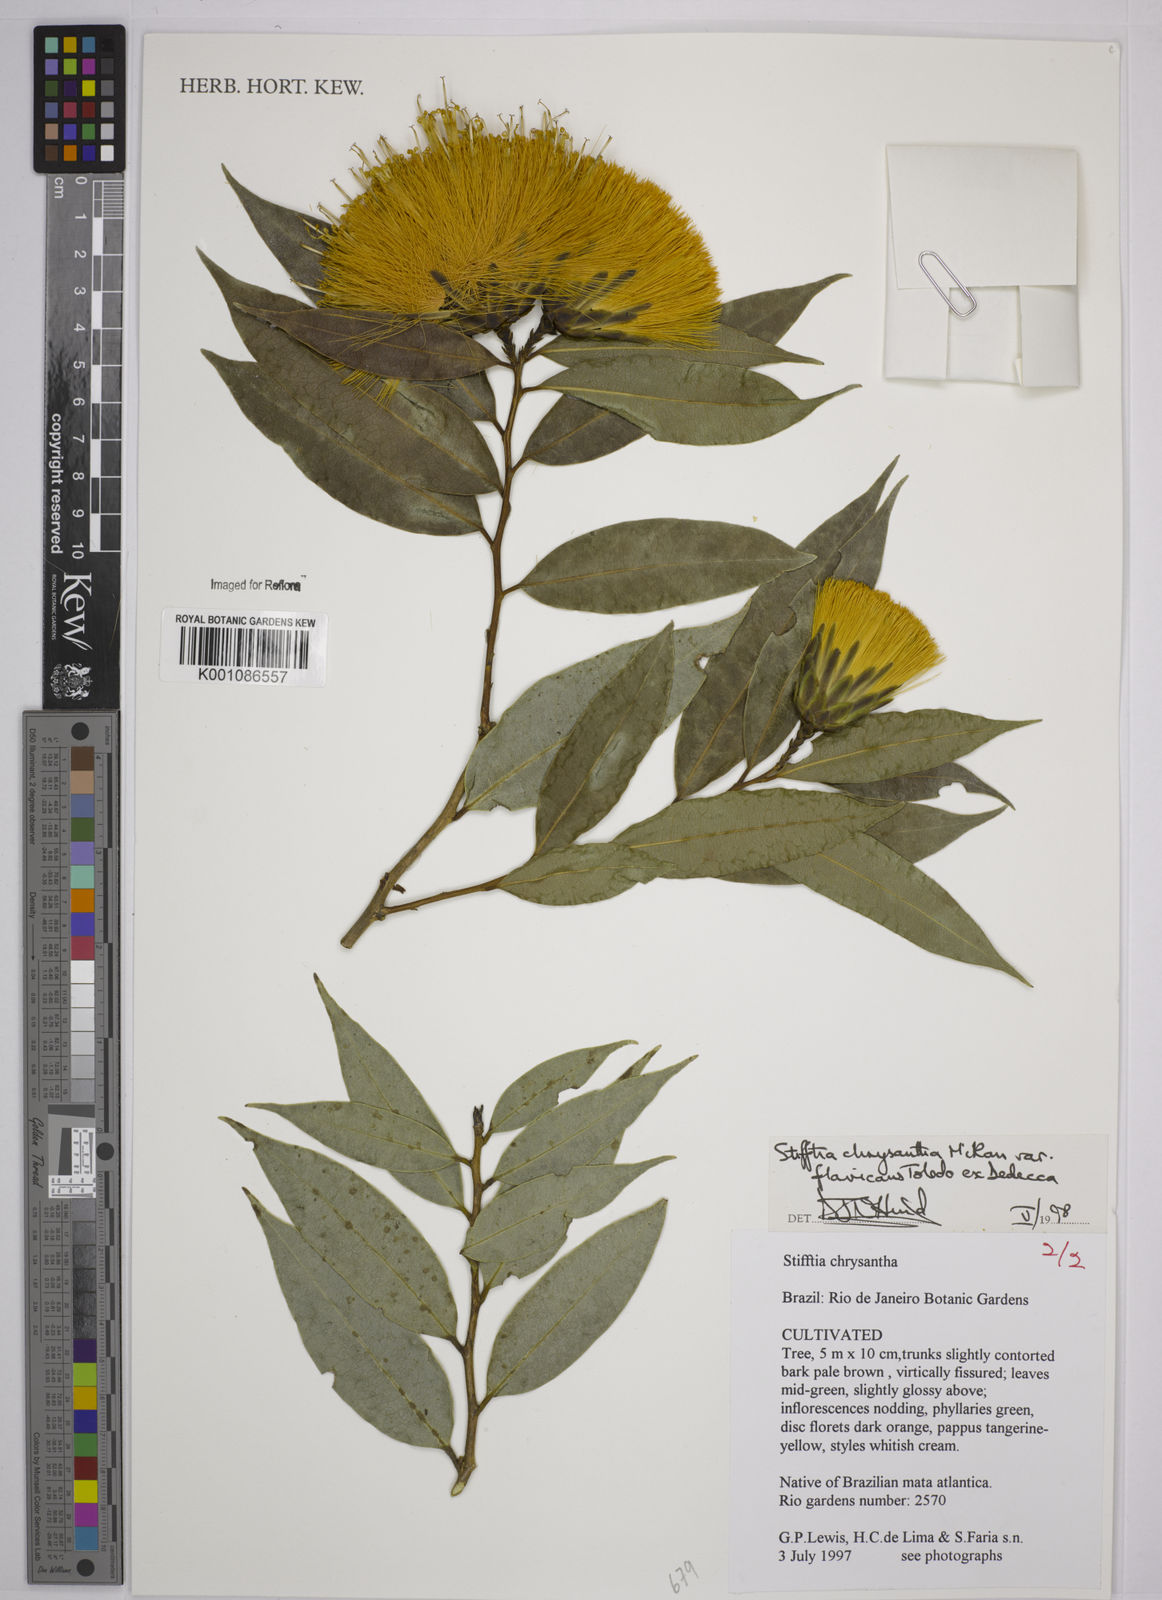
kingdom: Plantae
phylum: Tracheophyta
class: Magnoliopsida
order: Asterales
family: Asteraceae
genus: Stifftia
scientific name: Stifftia chrysantha
